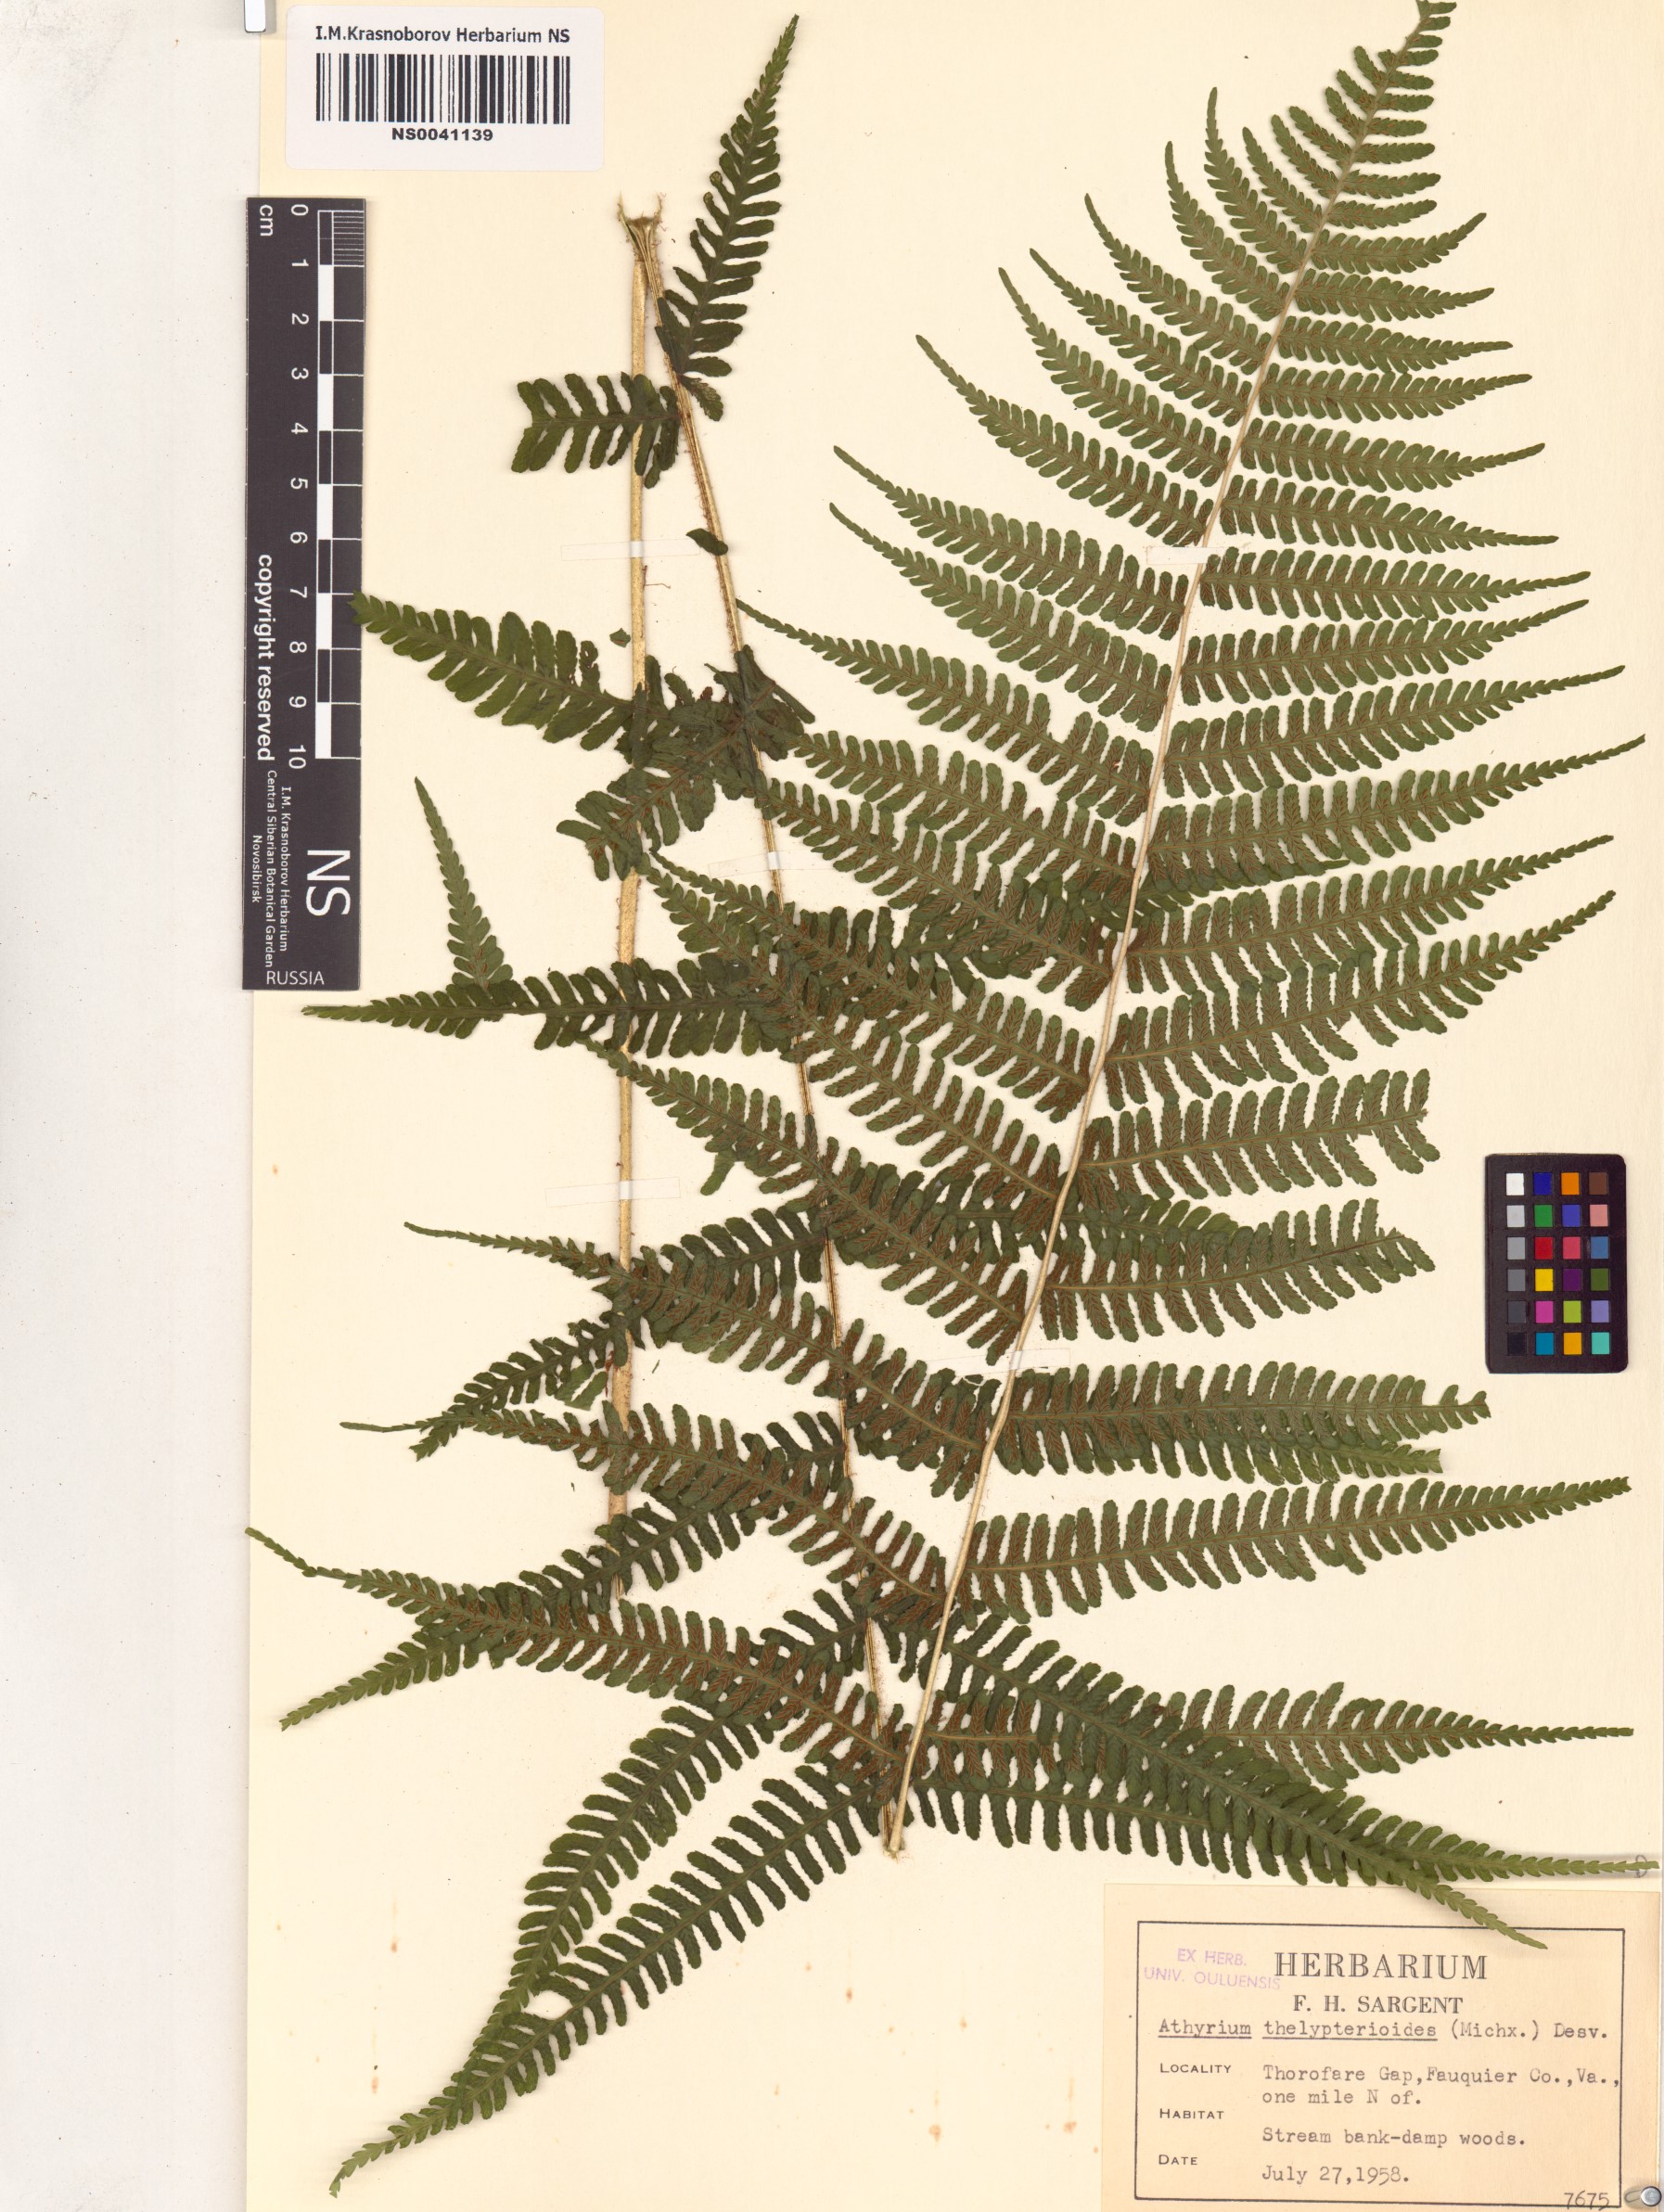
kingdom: Plantae
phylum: Tracheophyta
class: Polypodiopsida
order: Polypodiales
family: Athyriaceae
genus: Deparia
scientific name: Deparia acrostichoides
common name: Silver false spleenwort
